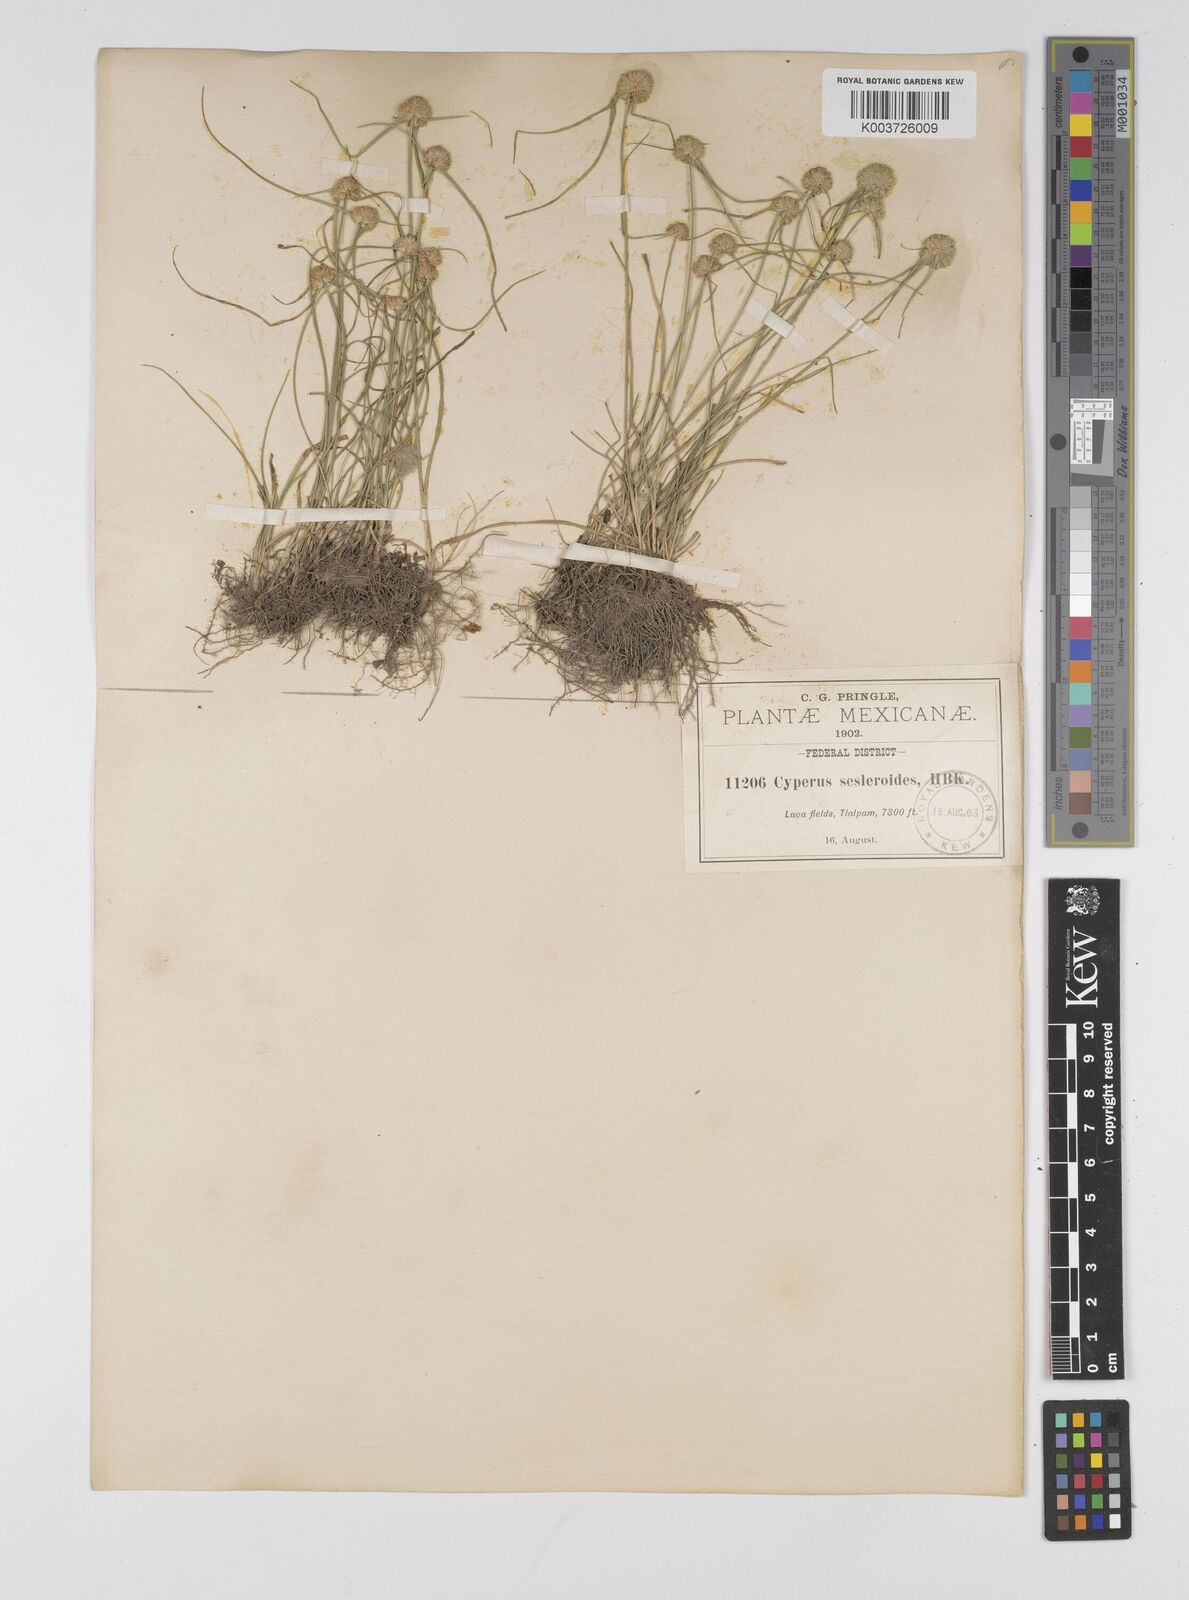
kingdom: Plantae
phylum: Tracheophyta
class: Liliopsida
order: Poales
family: Cyperaceae
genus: Cyperus
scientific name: Cyperus seslerioides
